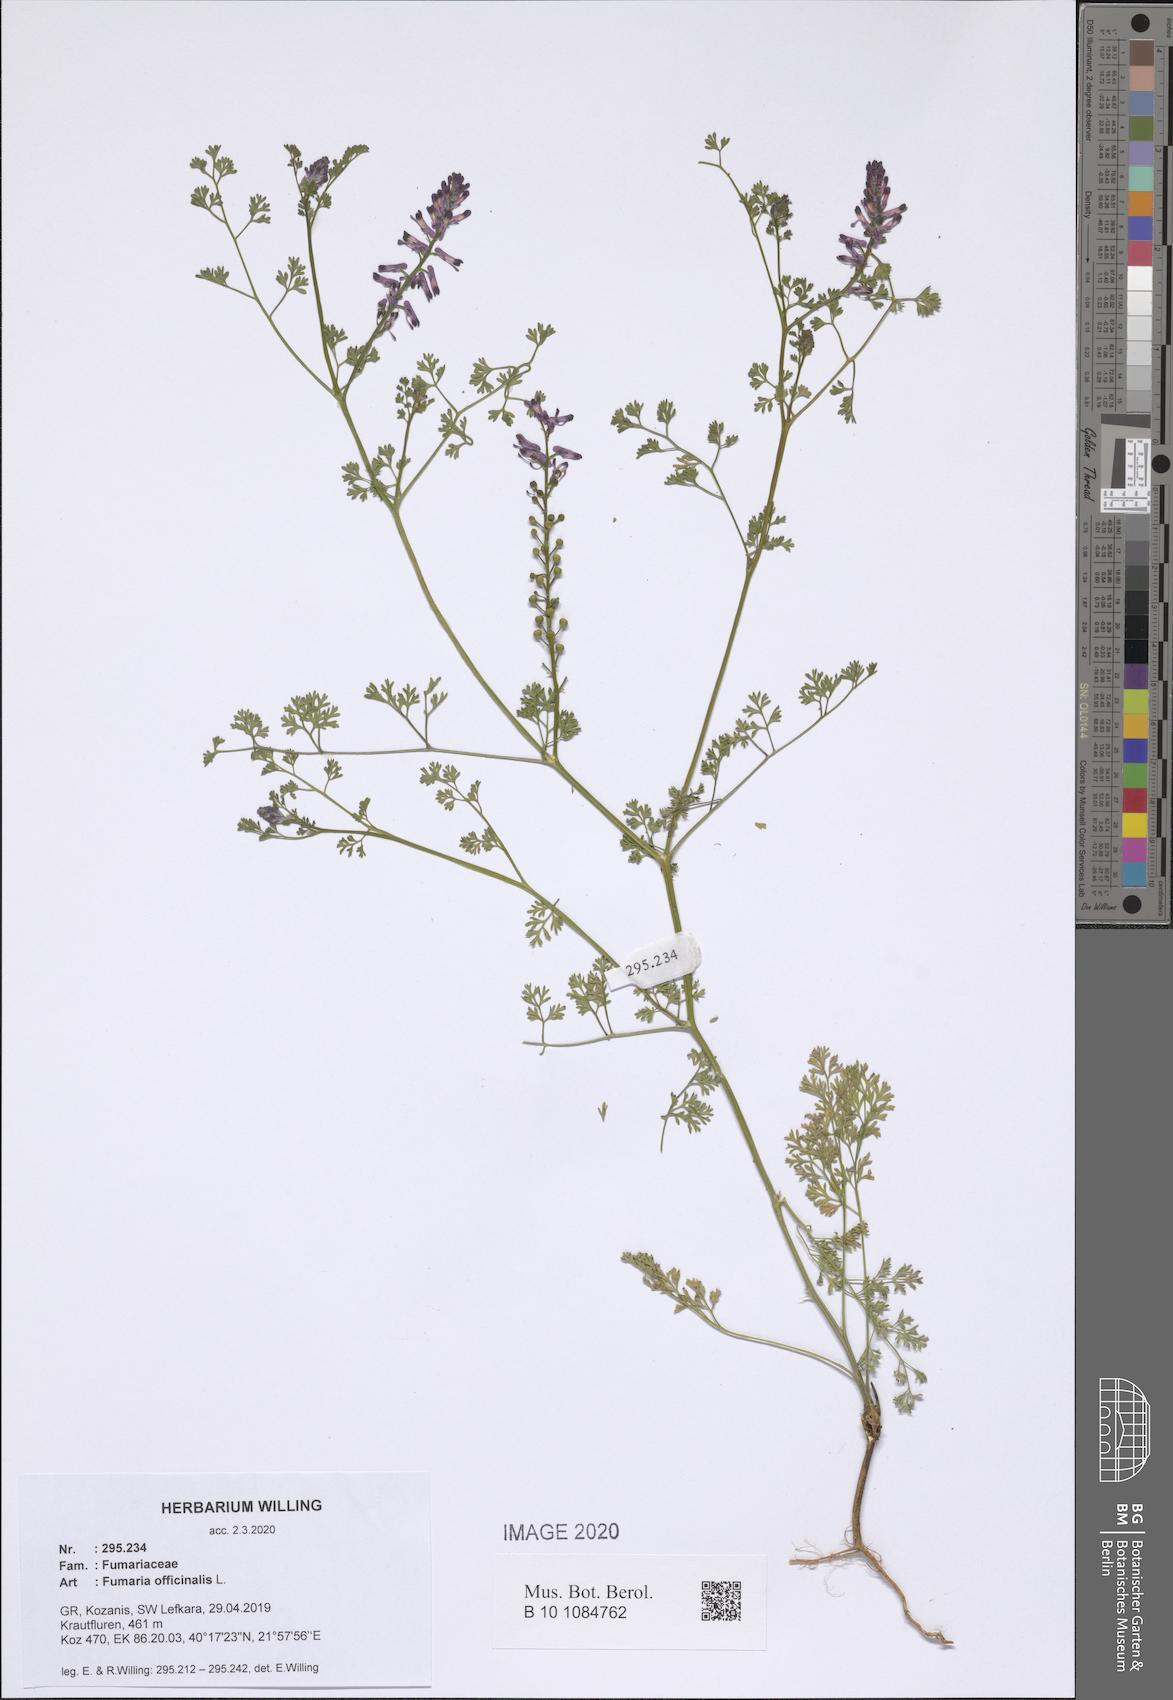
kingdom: Plantae
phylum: Tracheophyta
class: Magnoliopsida
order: Ranunculales
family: Papaveraceae
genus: Fumaria
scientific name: Fumaria officinalis
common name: Common fumitory
